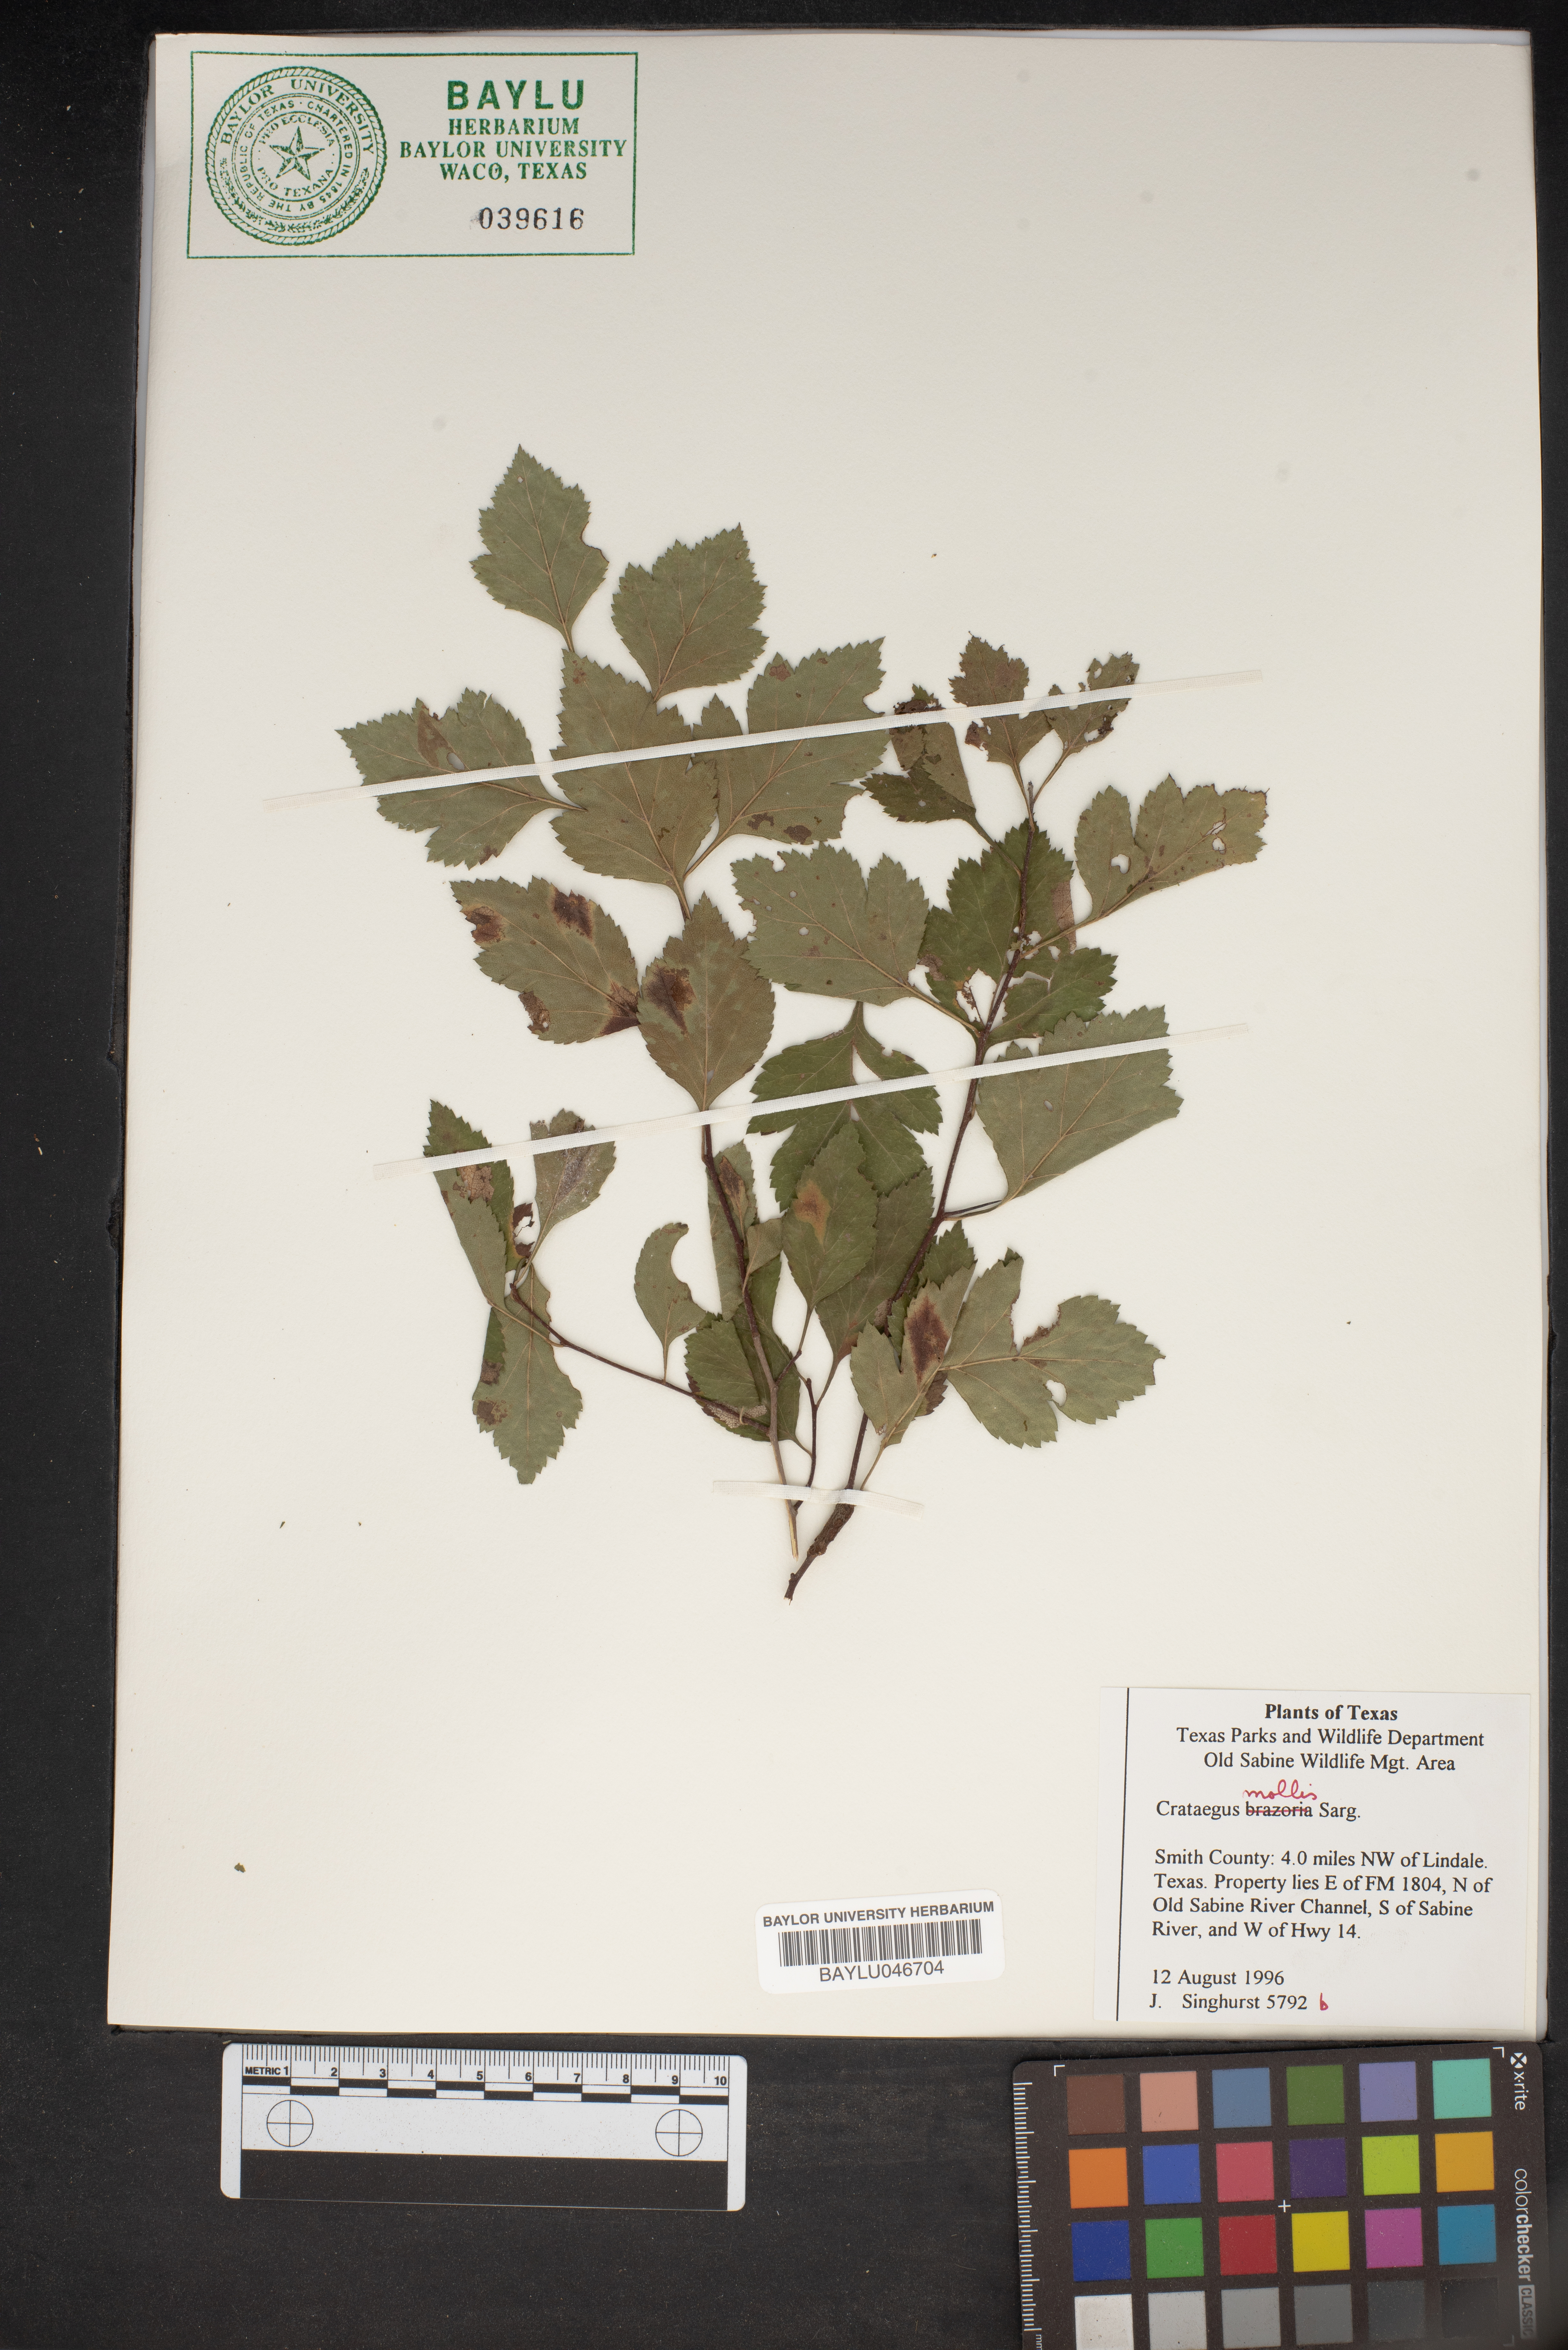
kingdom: Plantae
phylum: Tracheophyta
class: Magnoliopsida
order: Rosales
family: Rosaceae
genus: Crataegus
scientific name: Crataegus mollis
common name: Downy hawthorn
